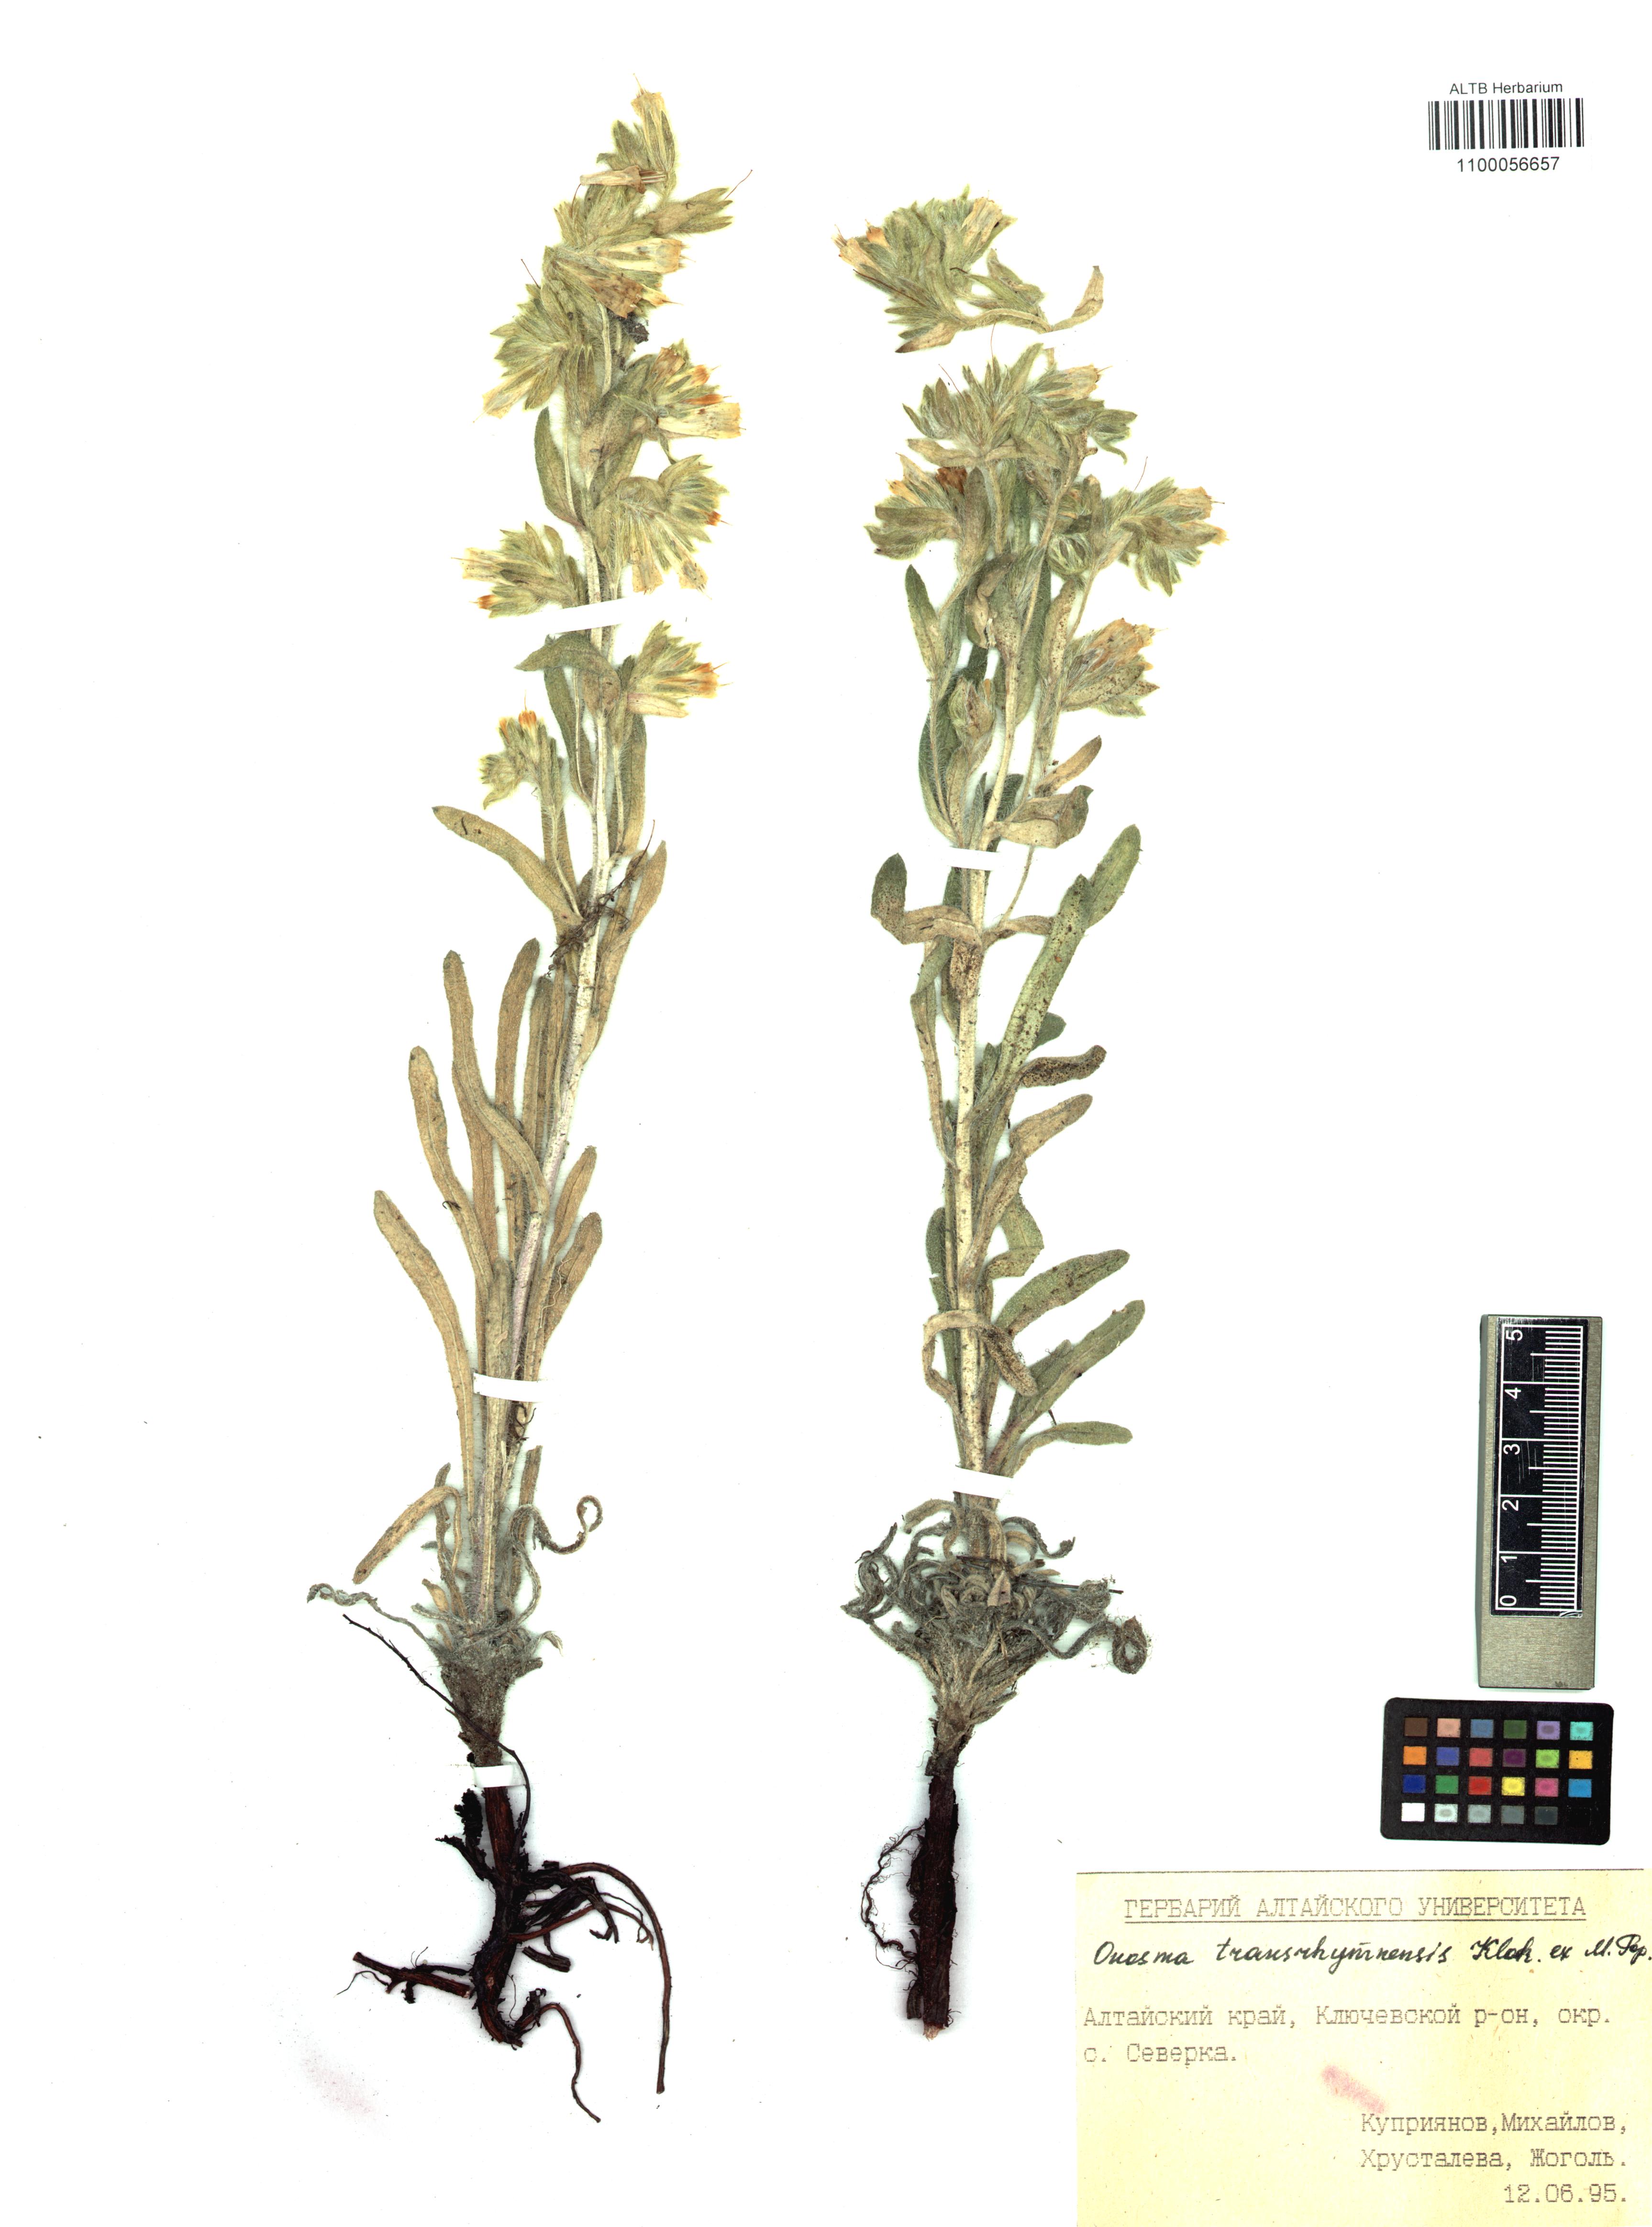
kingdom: Plantae
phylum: Tracheophyta
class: Magnoliopsida
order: Boraginales
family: Boraginaceae
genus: Onosma
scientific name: Onosma transrhymnensis
